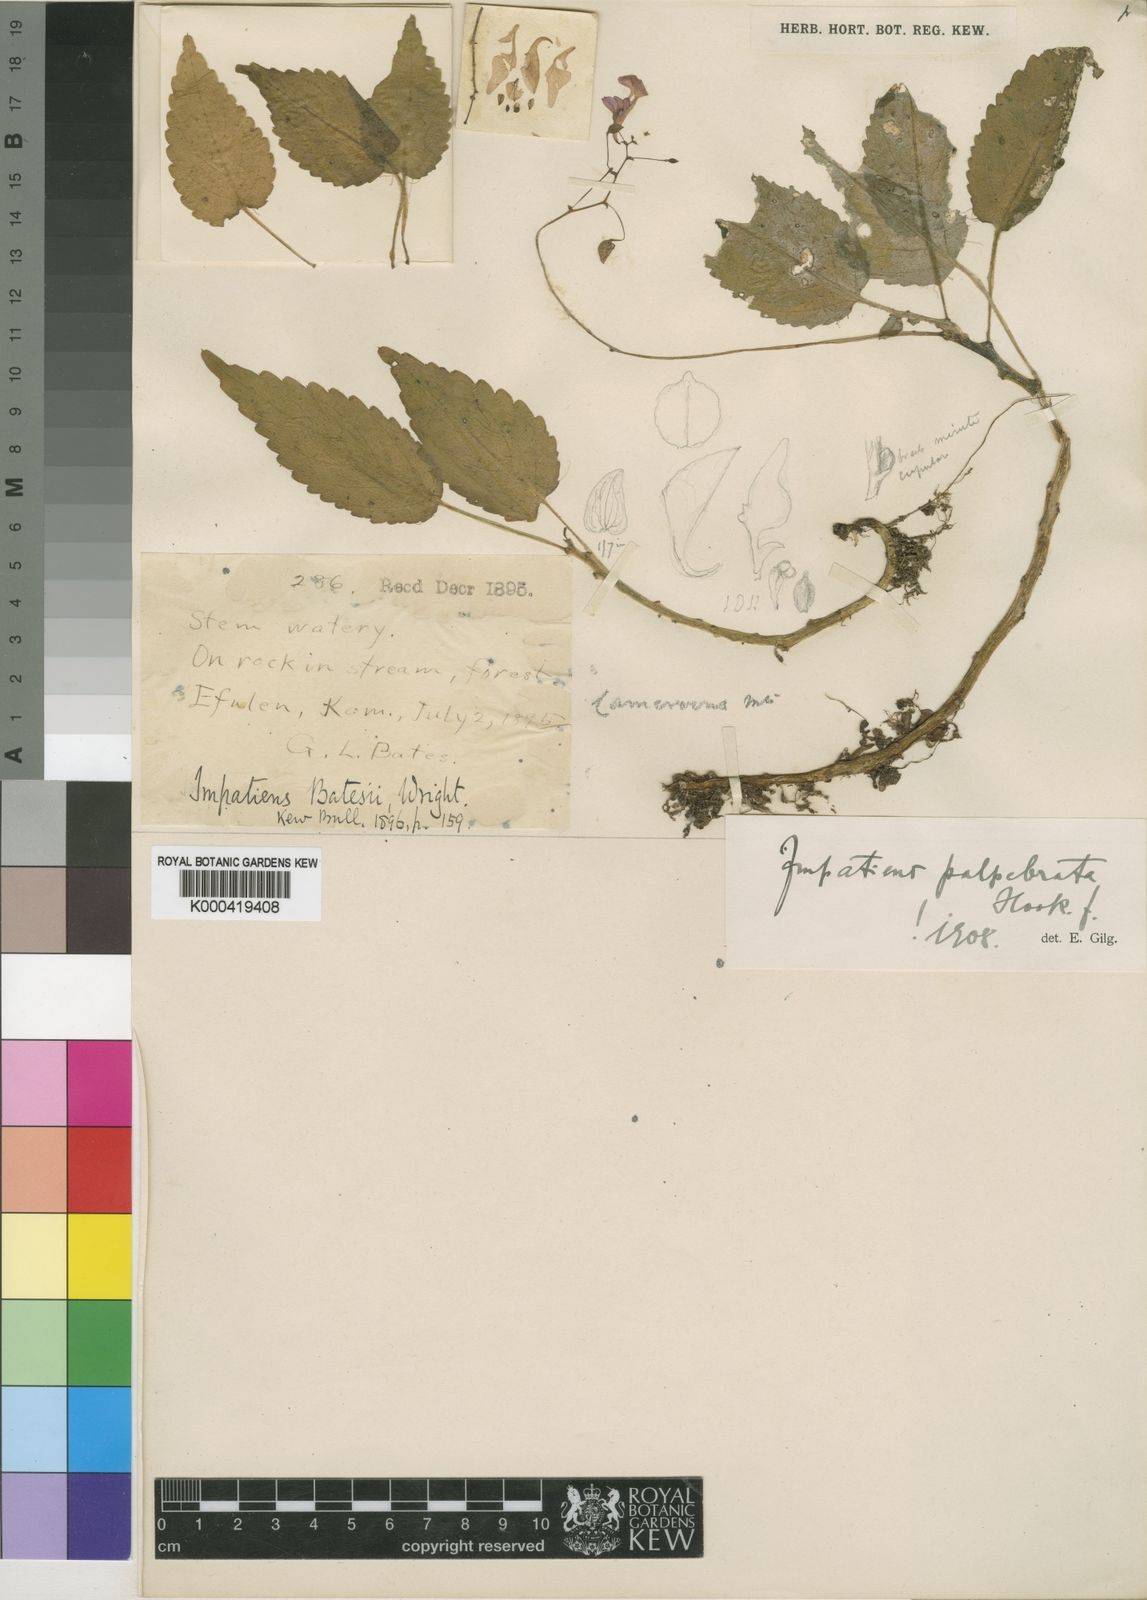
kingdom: Plantae
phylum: Tracheophyta
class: Magnoliopsida
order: Ericales
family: Balsaminaceae
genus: Impatiens
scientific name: Impatiens palpebrata
